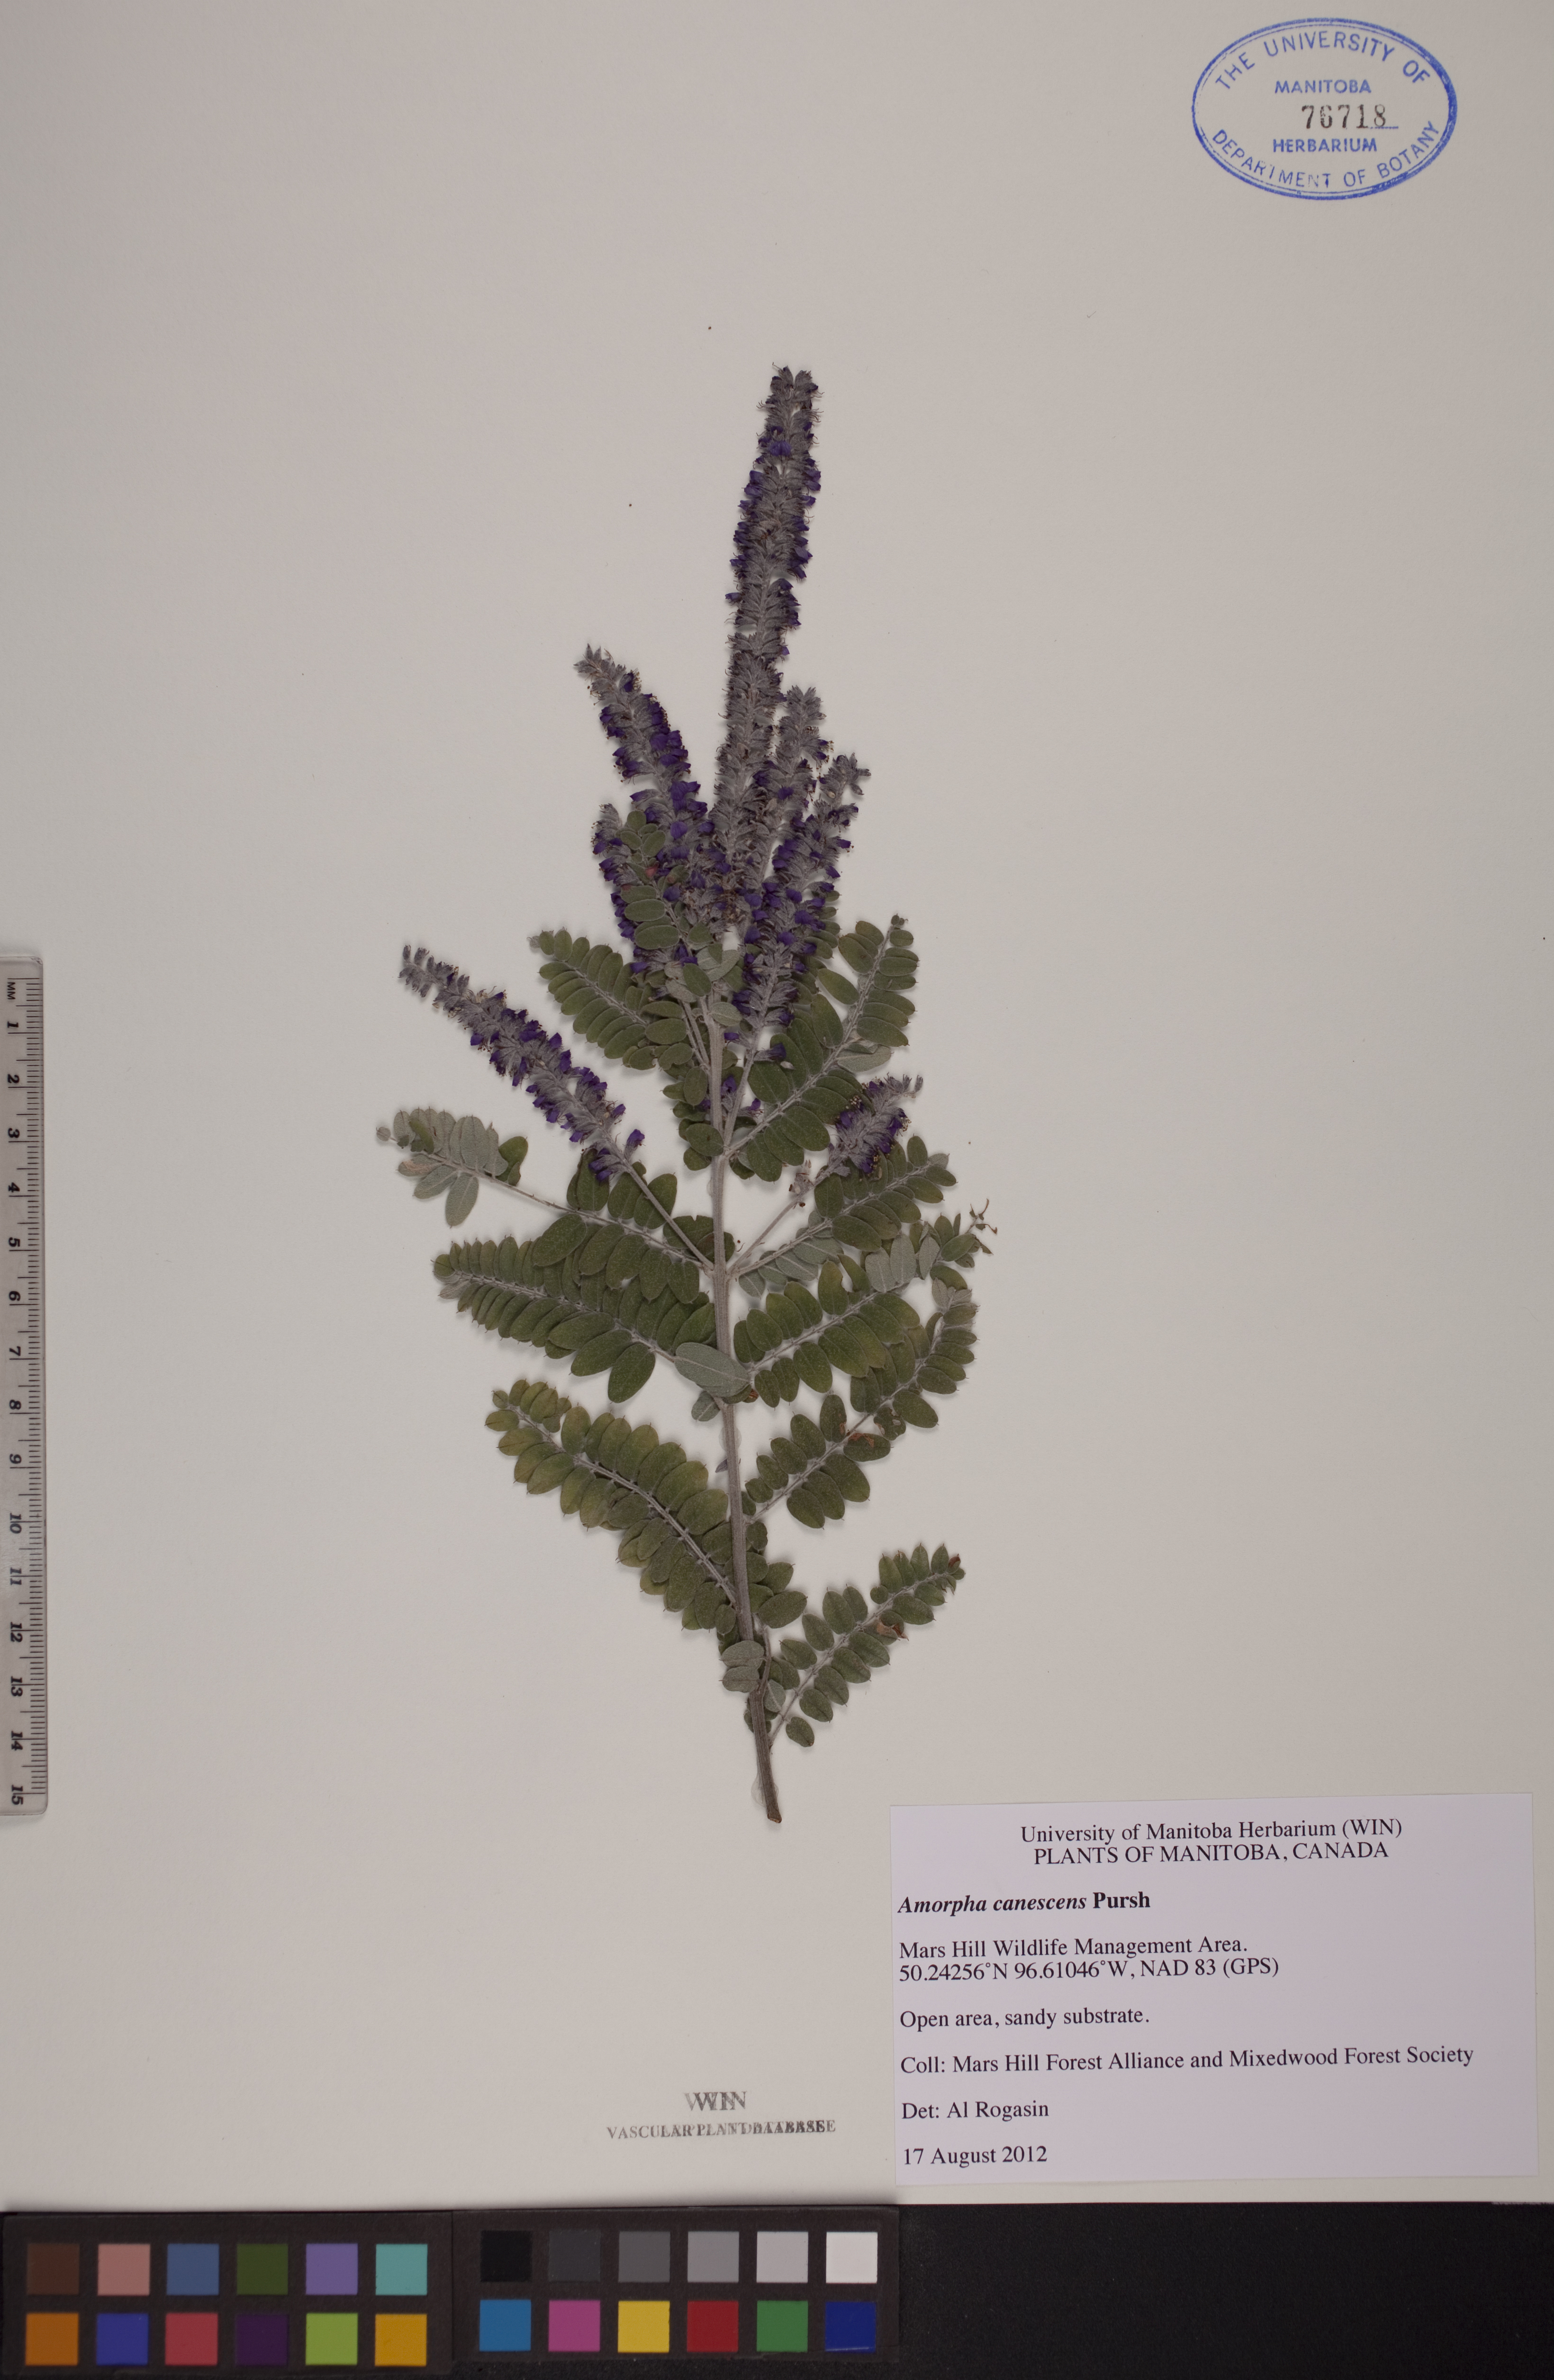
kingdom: Plantae
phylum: Tracheophyta
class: Magnoliopsida
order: Fabales
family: Fabaceae
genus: Amorpha
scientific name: Amorpha canescens
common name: Leadplant
